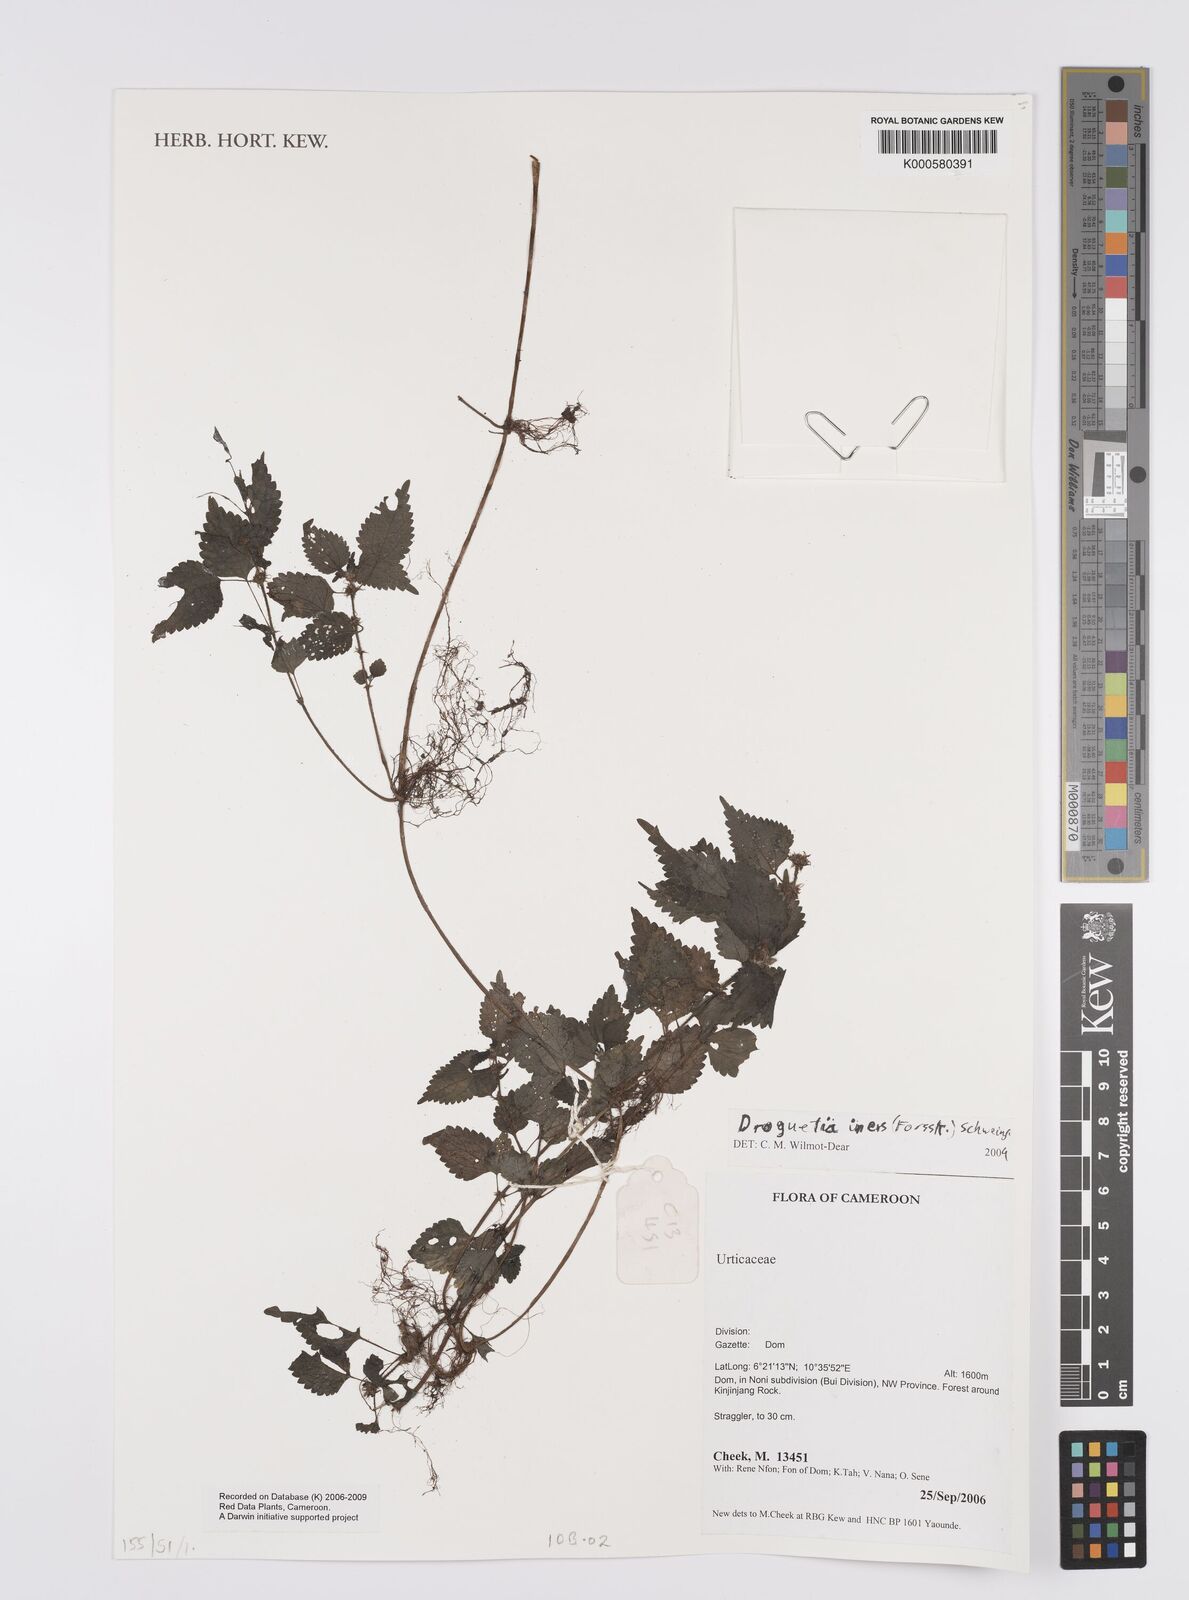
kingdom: Plantae
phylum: Tracheophyta
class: Magnoliopsida
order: Rosales
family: Urticaceae
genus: Droguetia
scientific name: Droguetia iners
